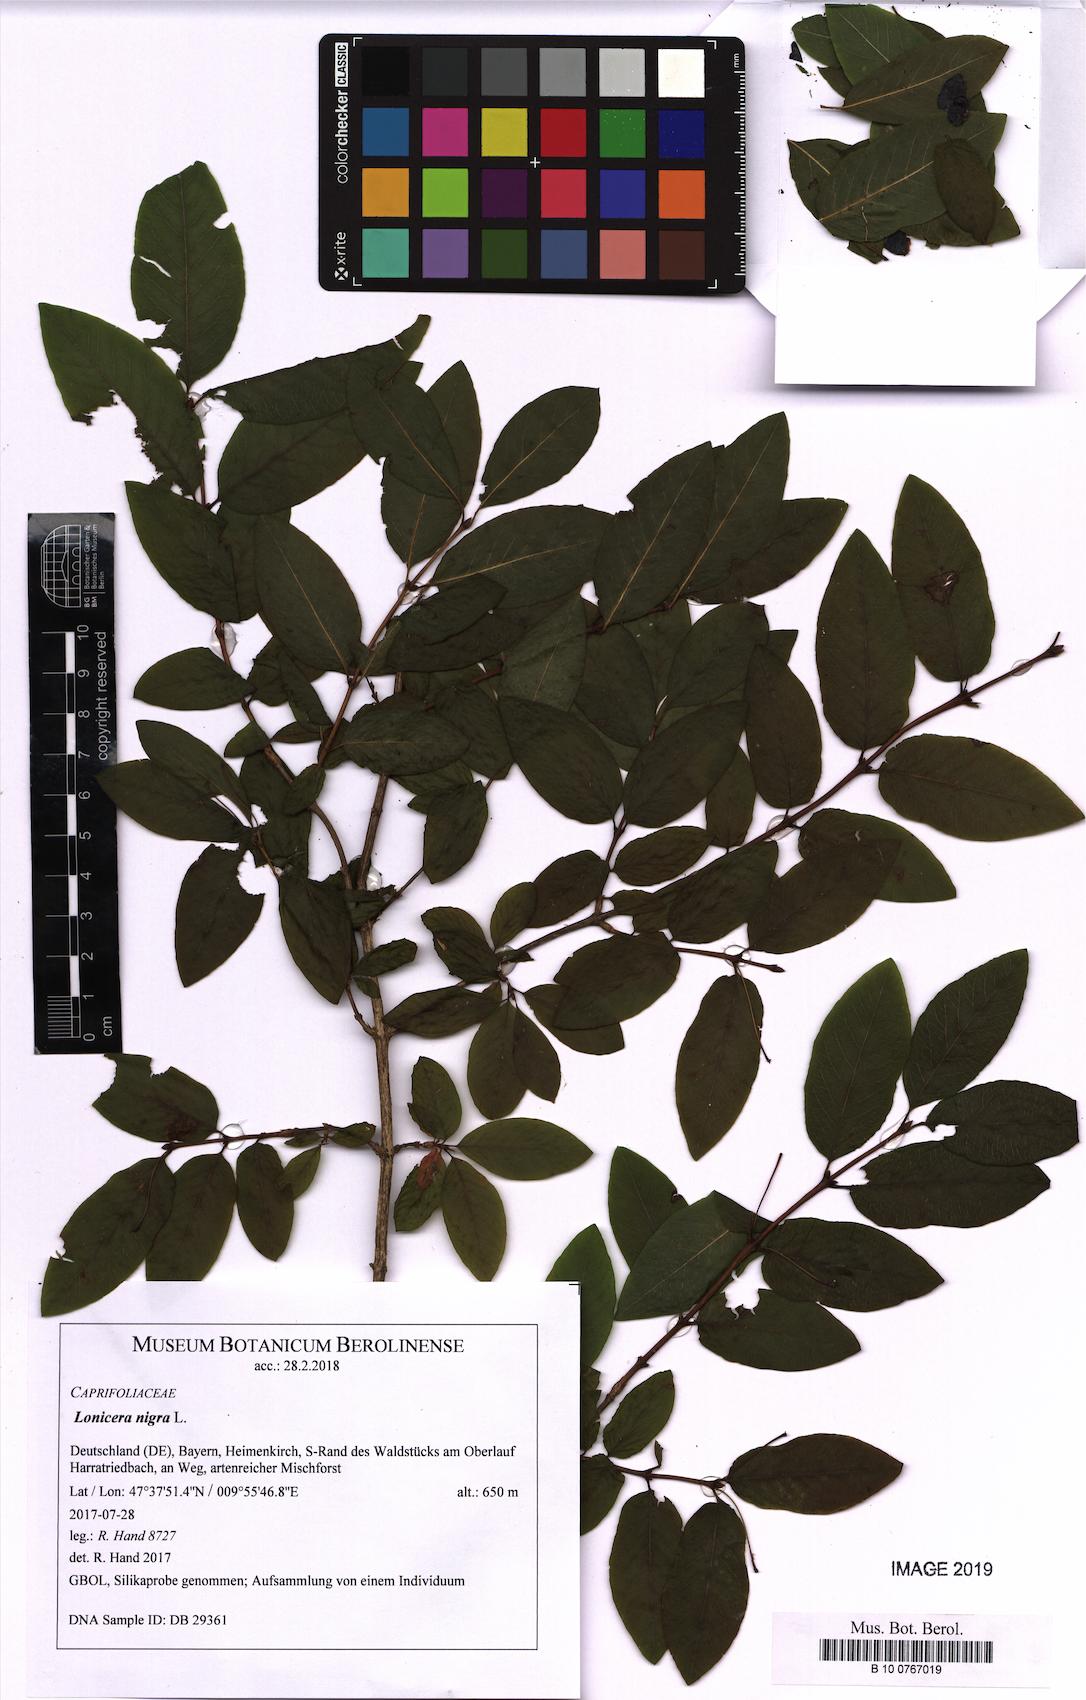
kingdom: Plantae
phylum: Tracheophyta
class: Magnoliopsida
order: Dipsacales
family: Caprifoliaceae
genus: Lonicera
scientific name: Lonicera nigra
